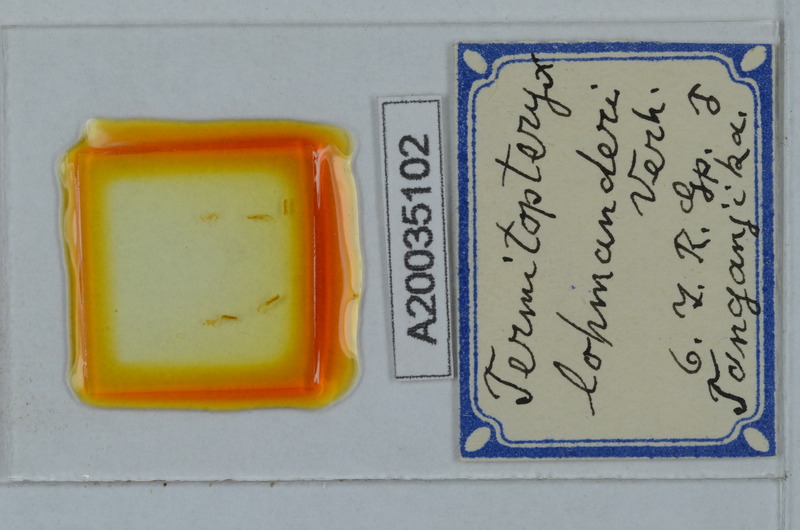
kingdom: Animalia
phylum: Arthropoda
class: Diplopoda
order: Polydesmida
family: Pyrgodesmidae
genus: Termitopteryx
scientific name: Termitopteryx lohmanderi
